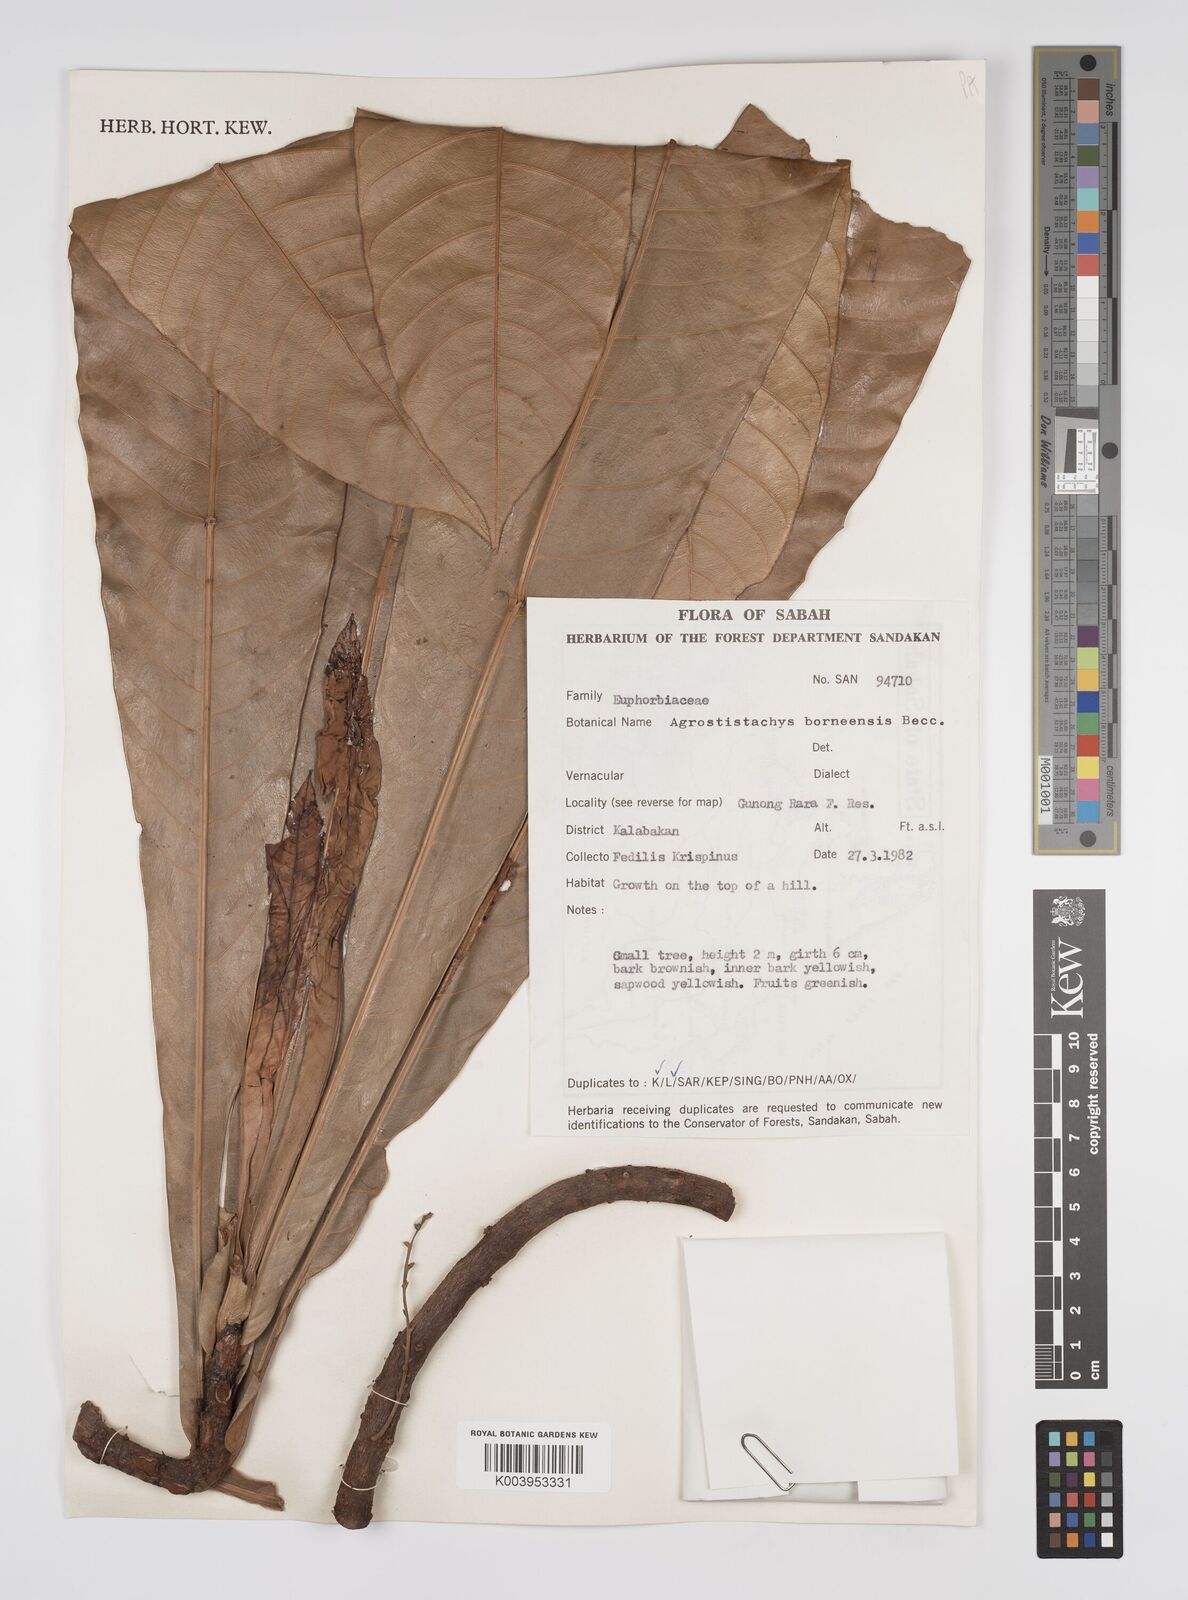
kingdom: Plantae
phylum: Tracheophyta
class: Magnoliopsida
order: Malpighiales
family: Euphorbiaceae
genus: Agrostistachys
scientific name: Agrostistachys borneensis
